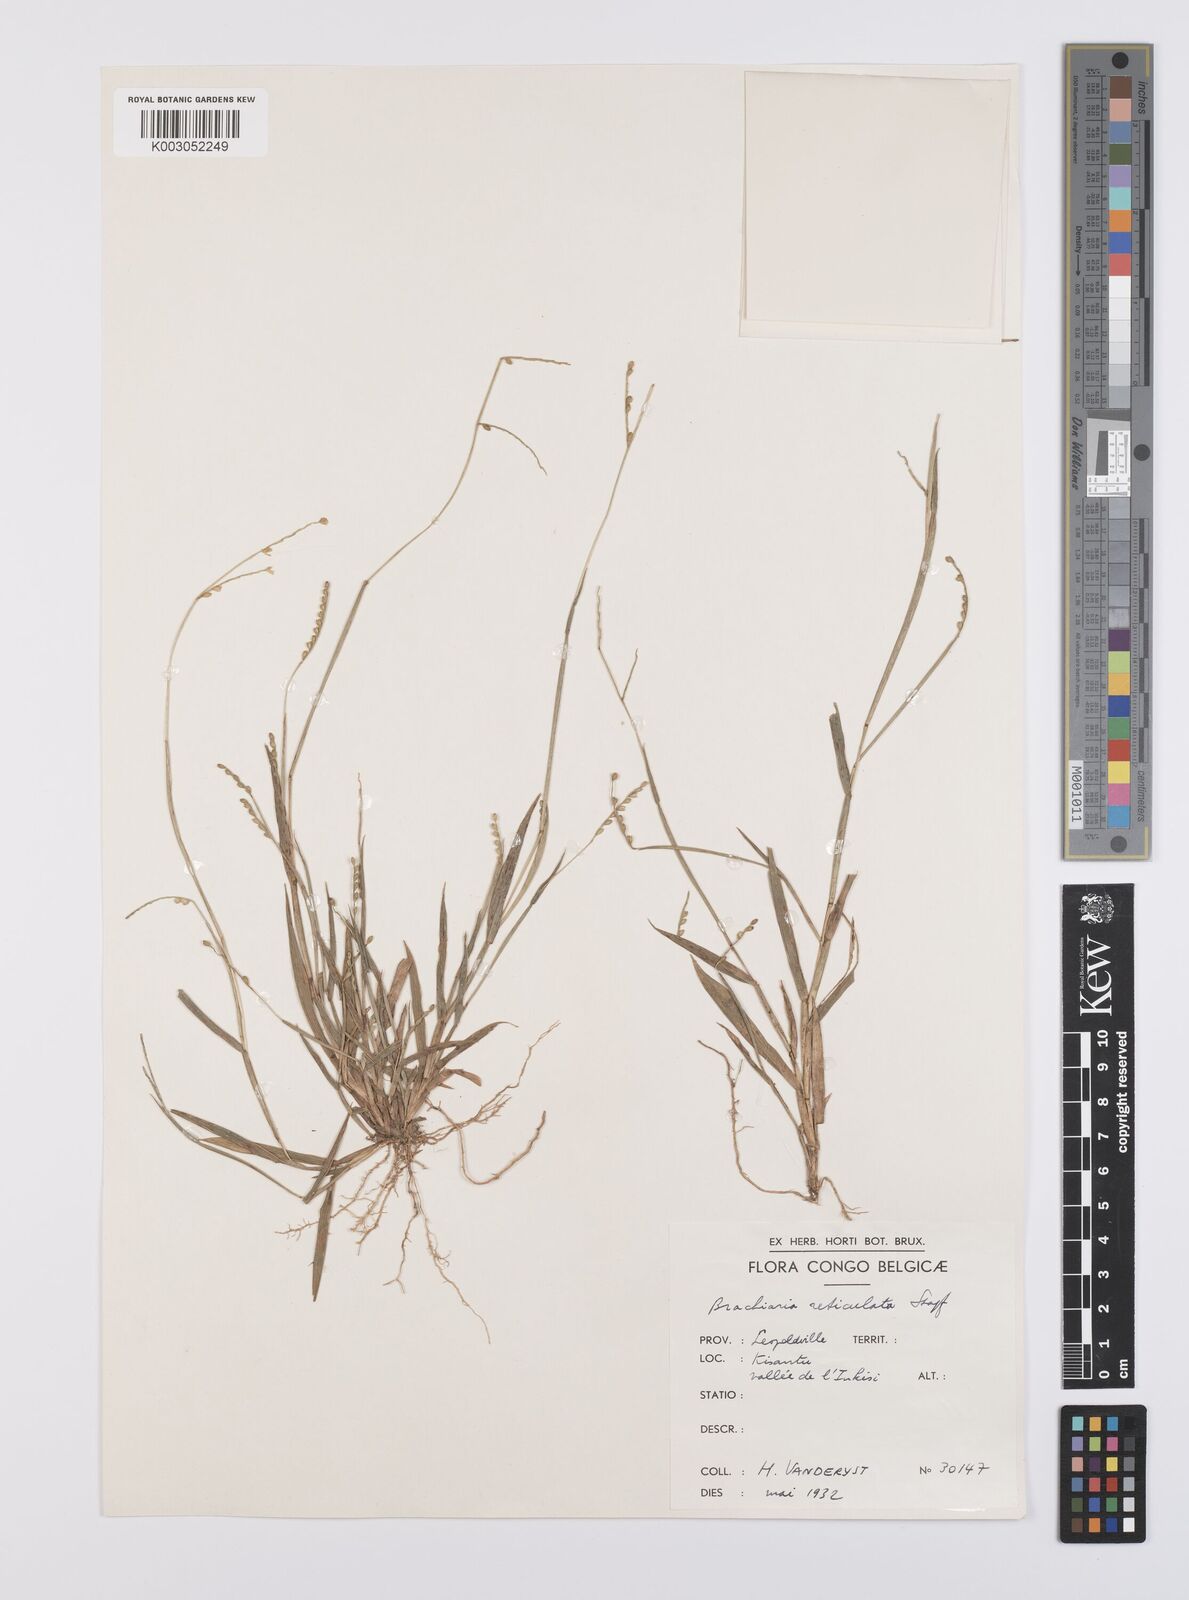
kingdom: Plantae
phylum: Tracheophyta
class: Liliopsida
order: Poales
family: Poaceae
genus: Urochloa
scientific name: Urochloa reticulata
